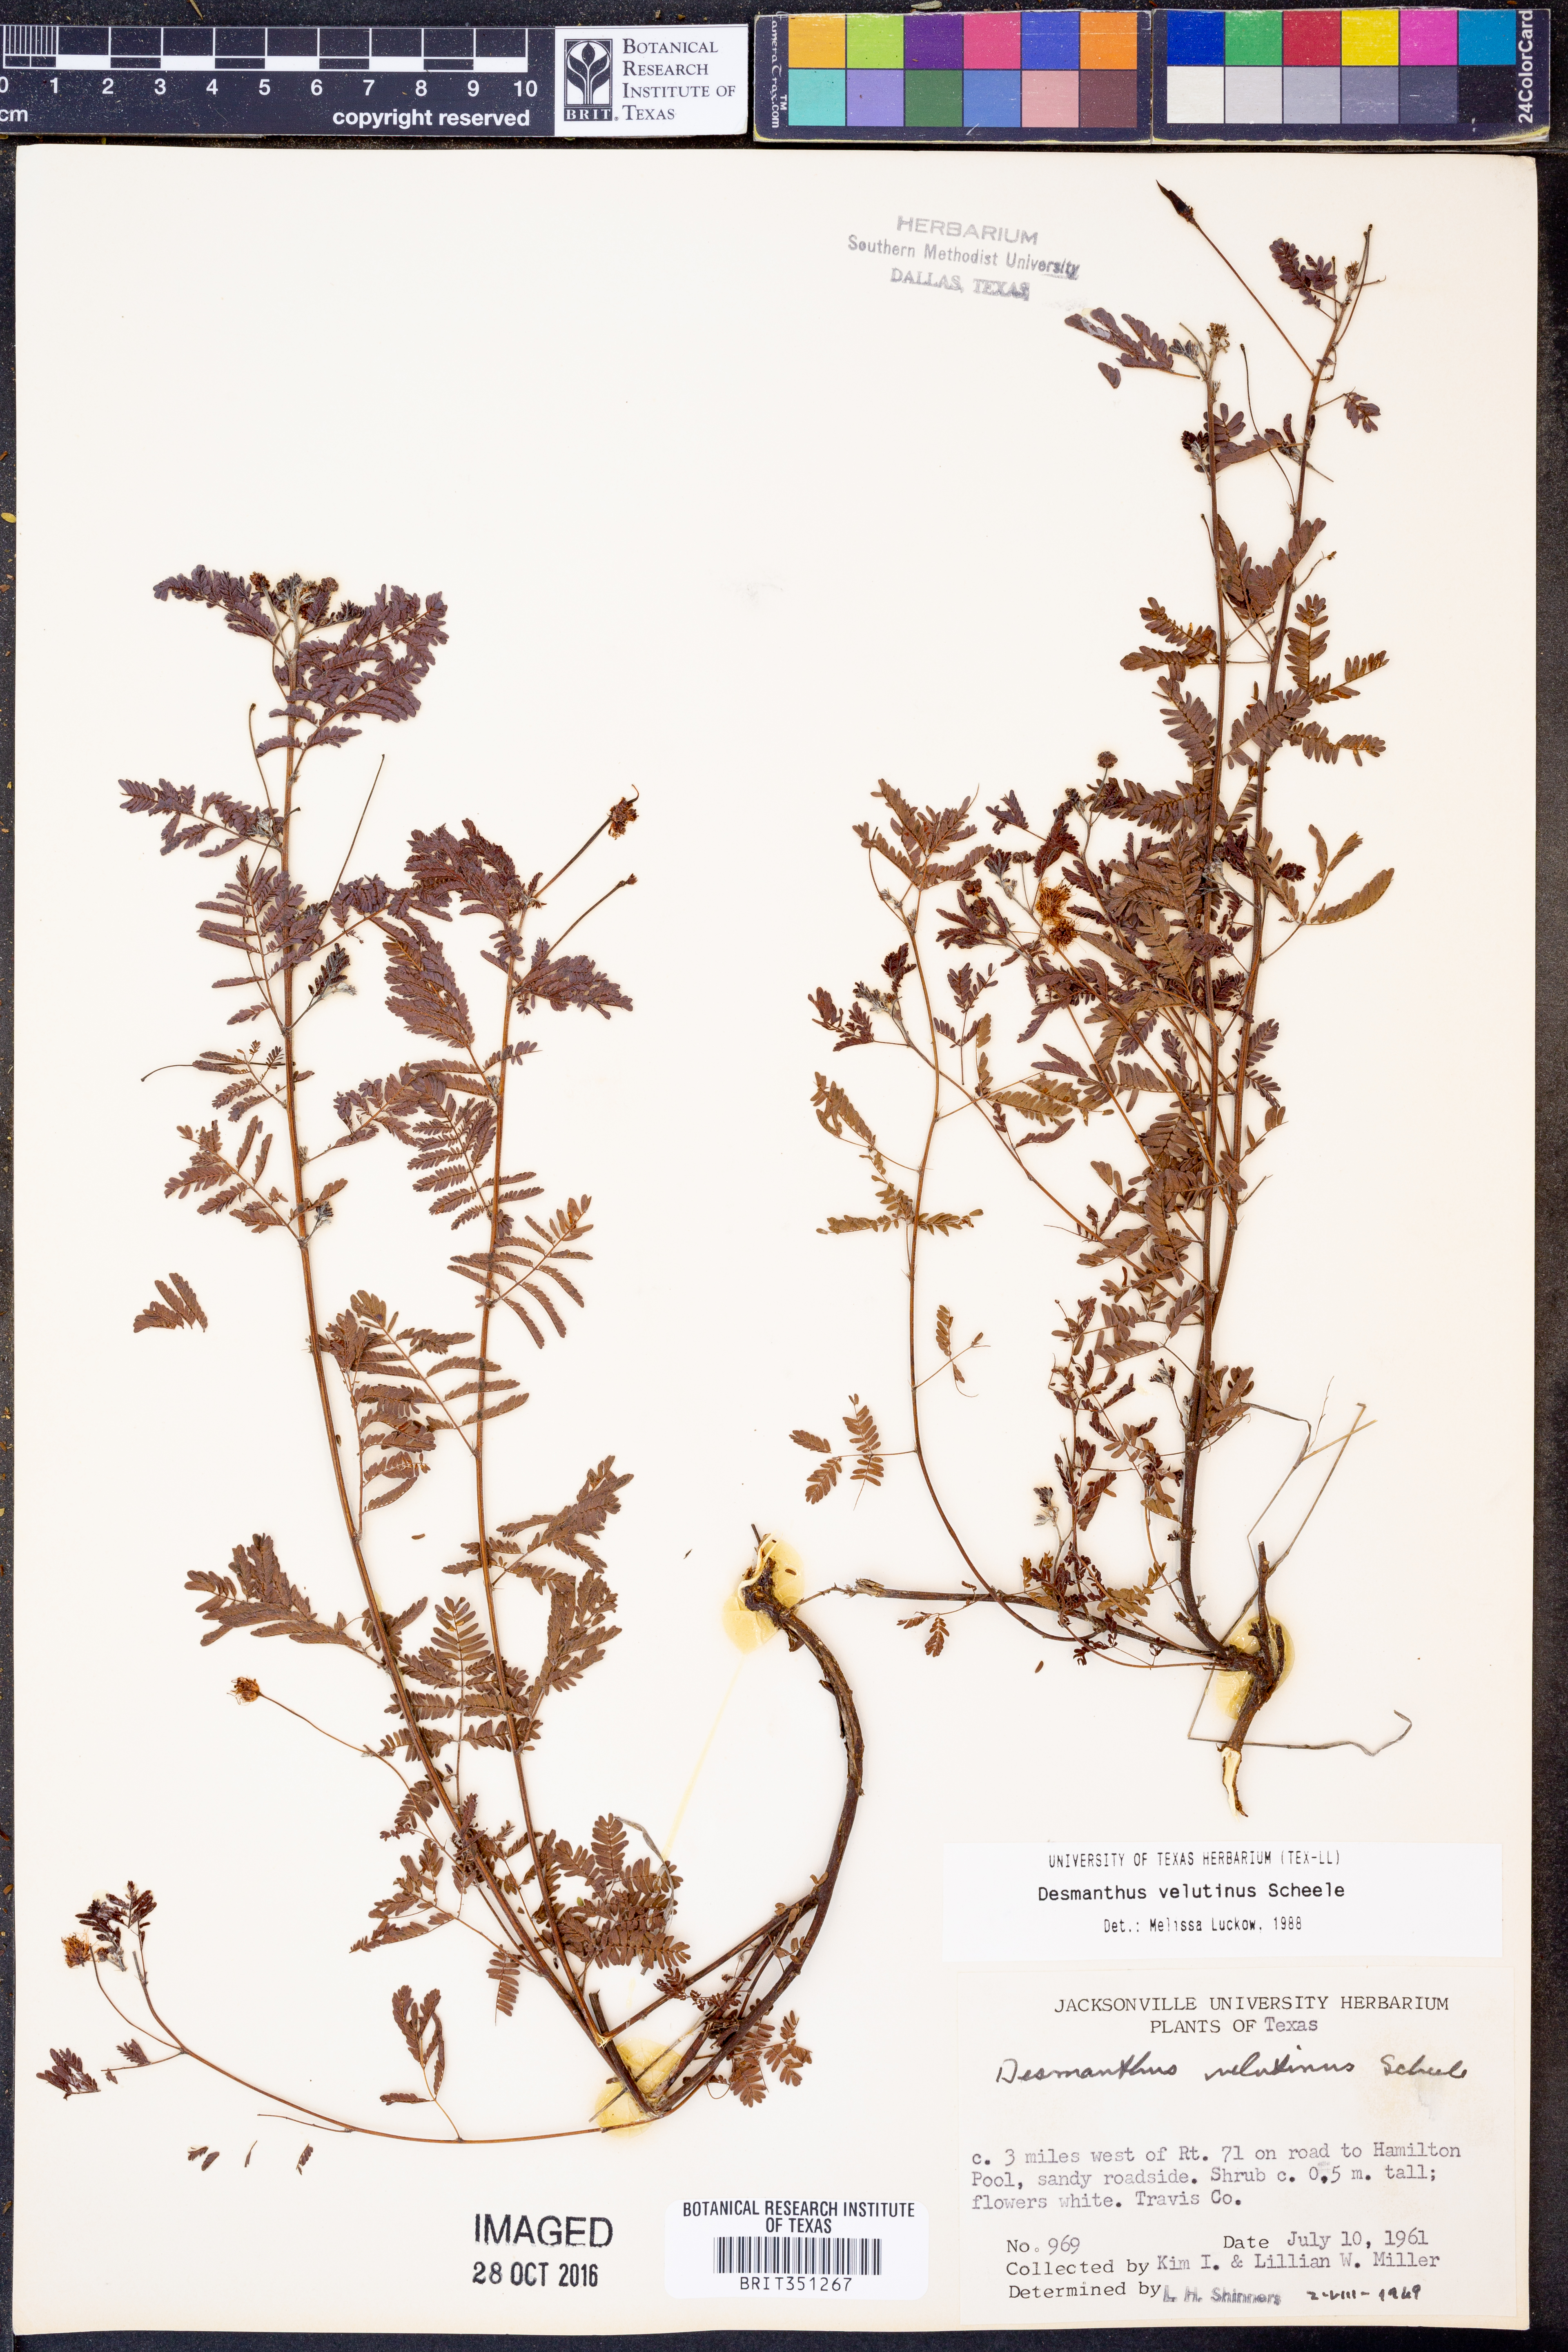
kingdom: Plantae
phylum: Tracheophyta
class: Magnoliopsida
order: Fabales
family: Fabaceae
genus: Desmanthus
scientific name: Desmanthus velutinus
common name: Velvet bundle-flower
